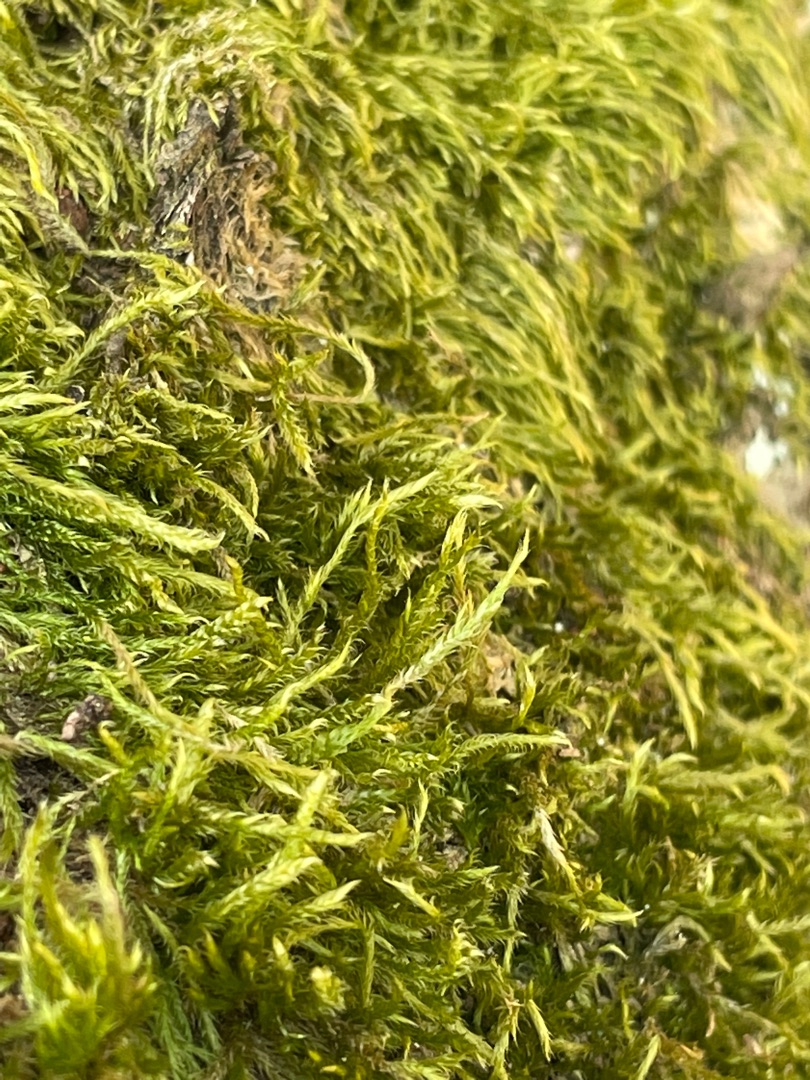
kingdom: Plantae
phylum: Bryophyta
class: Bryopsida
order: Hypnales
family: Hypnaceae
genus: Hypnum
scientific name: Hypnum
